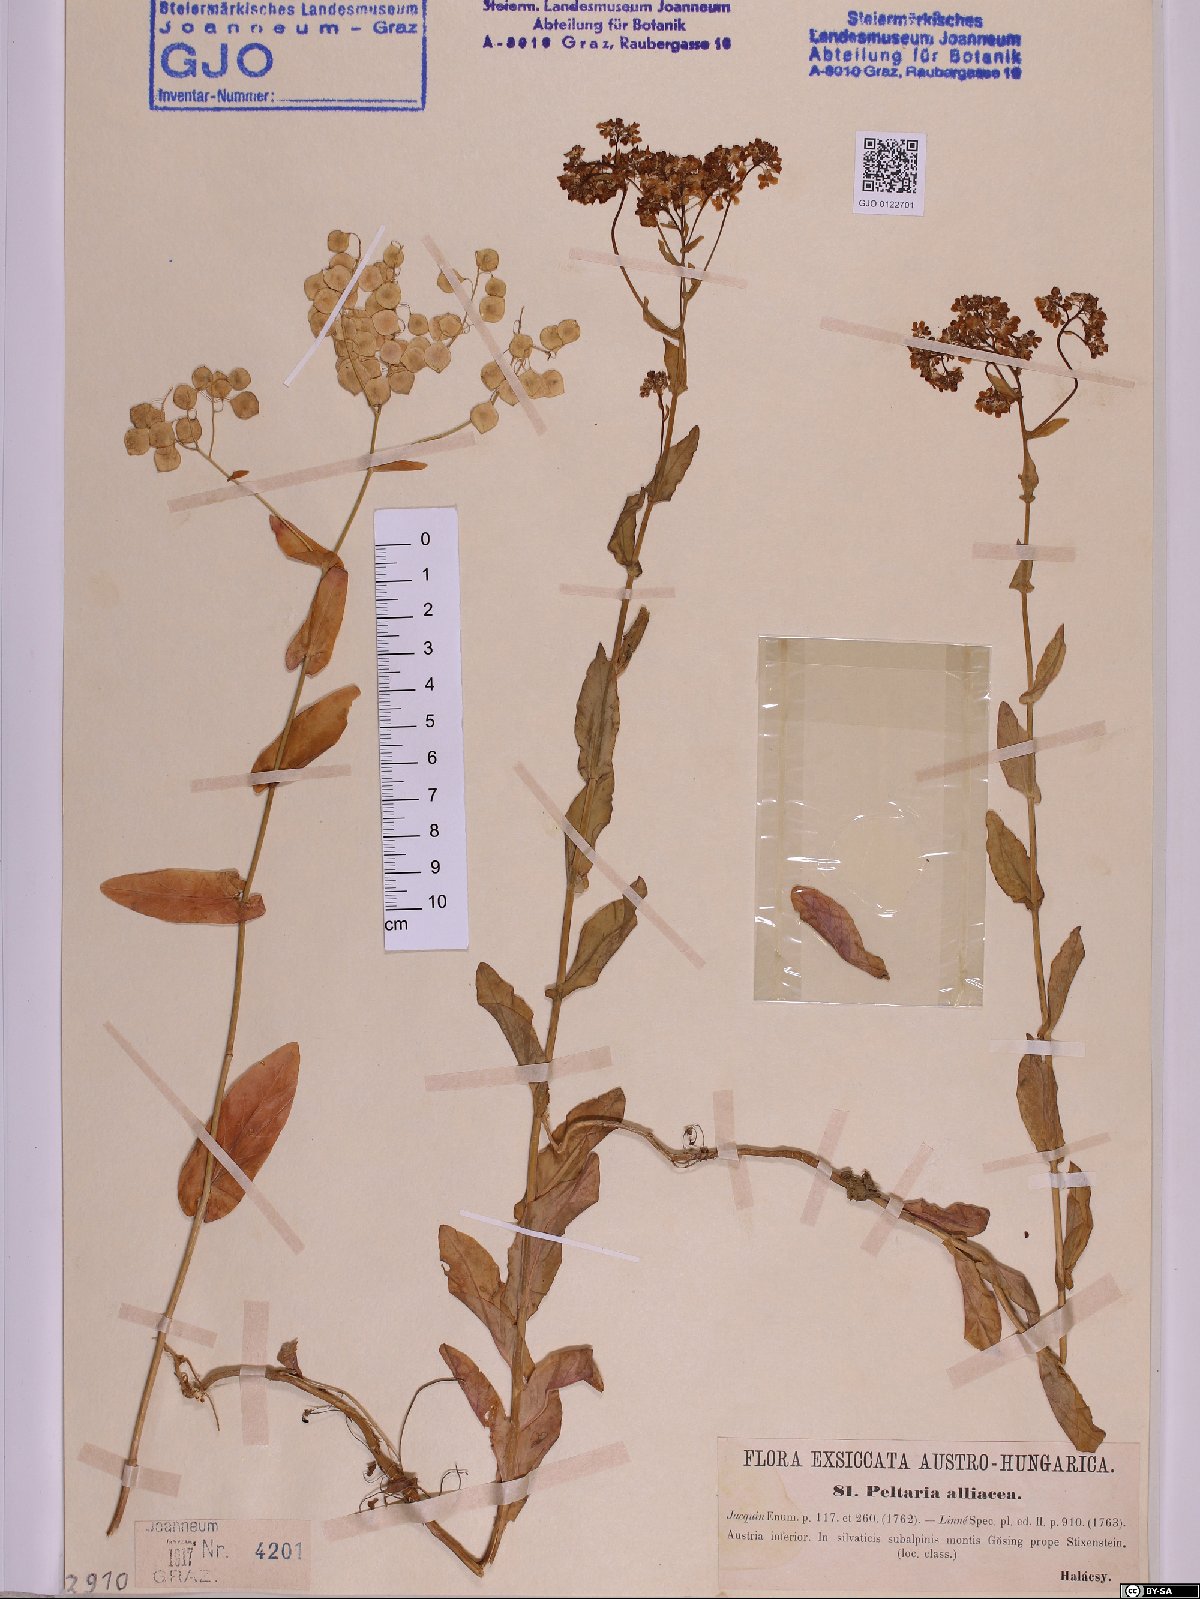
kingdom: Plantae
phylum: Tracheophyta
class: Magnoliopsida
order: Brassicales
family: Brassicaceae
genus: Peltaria
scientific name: Peltaria alliacea
